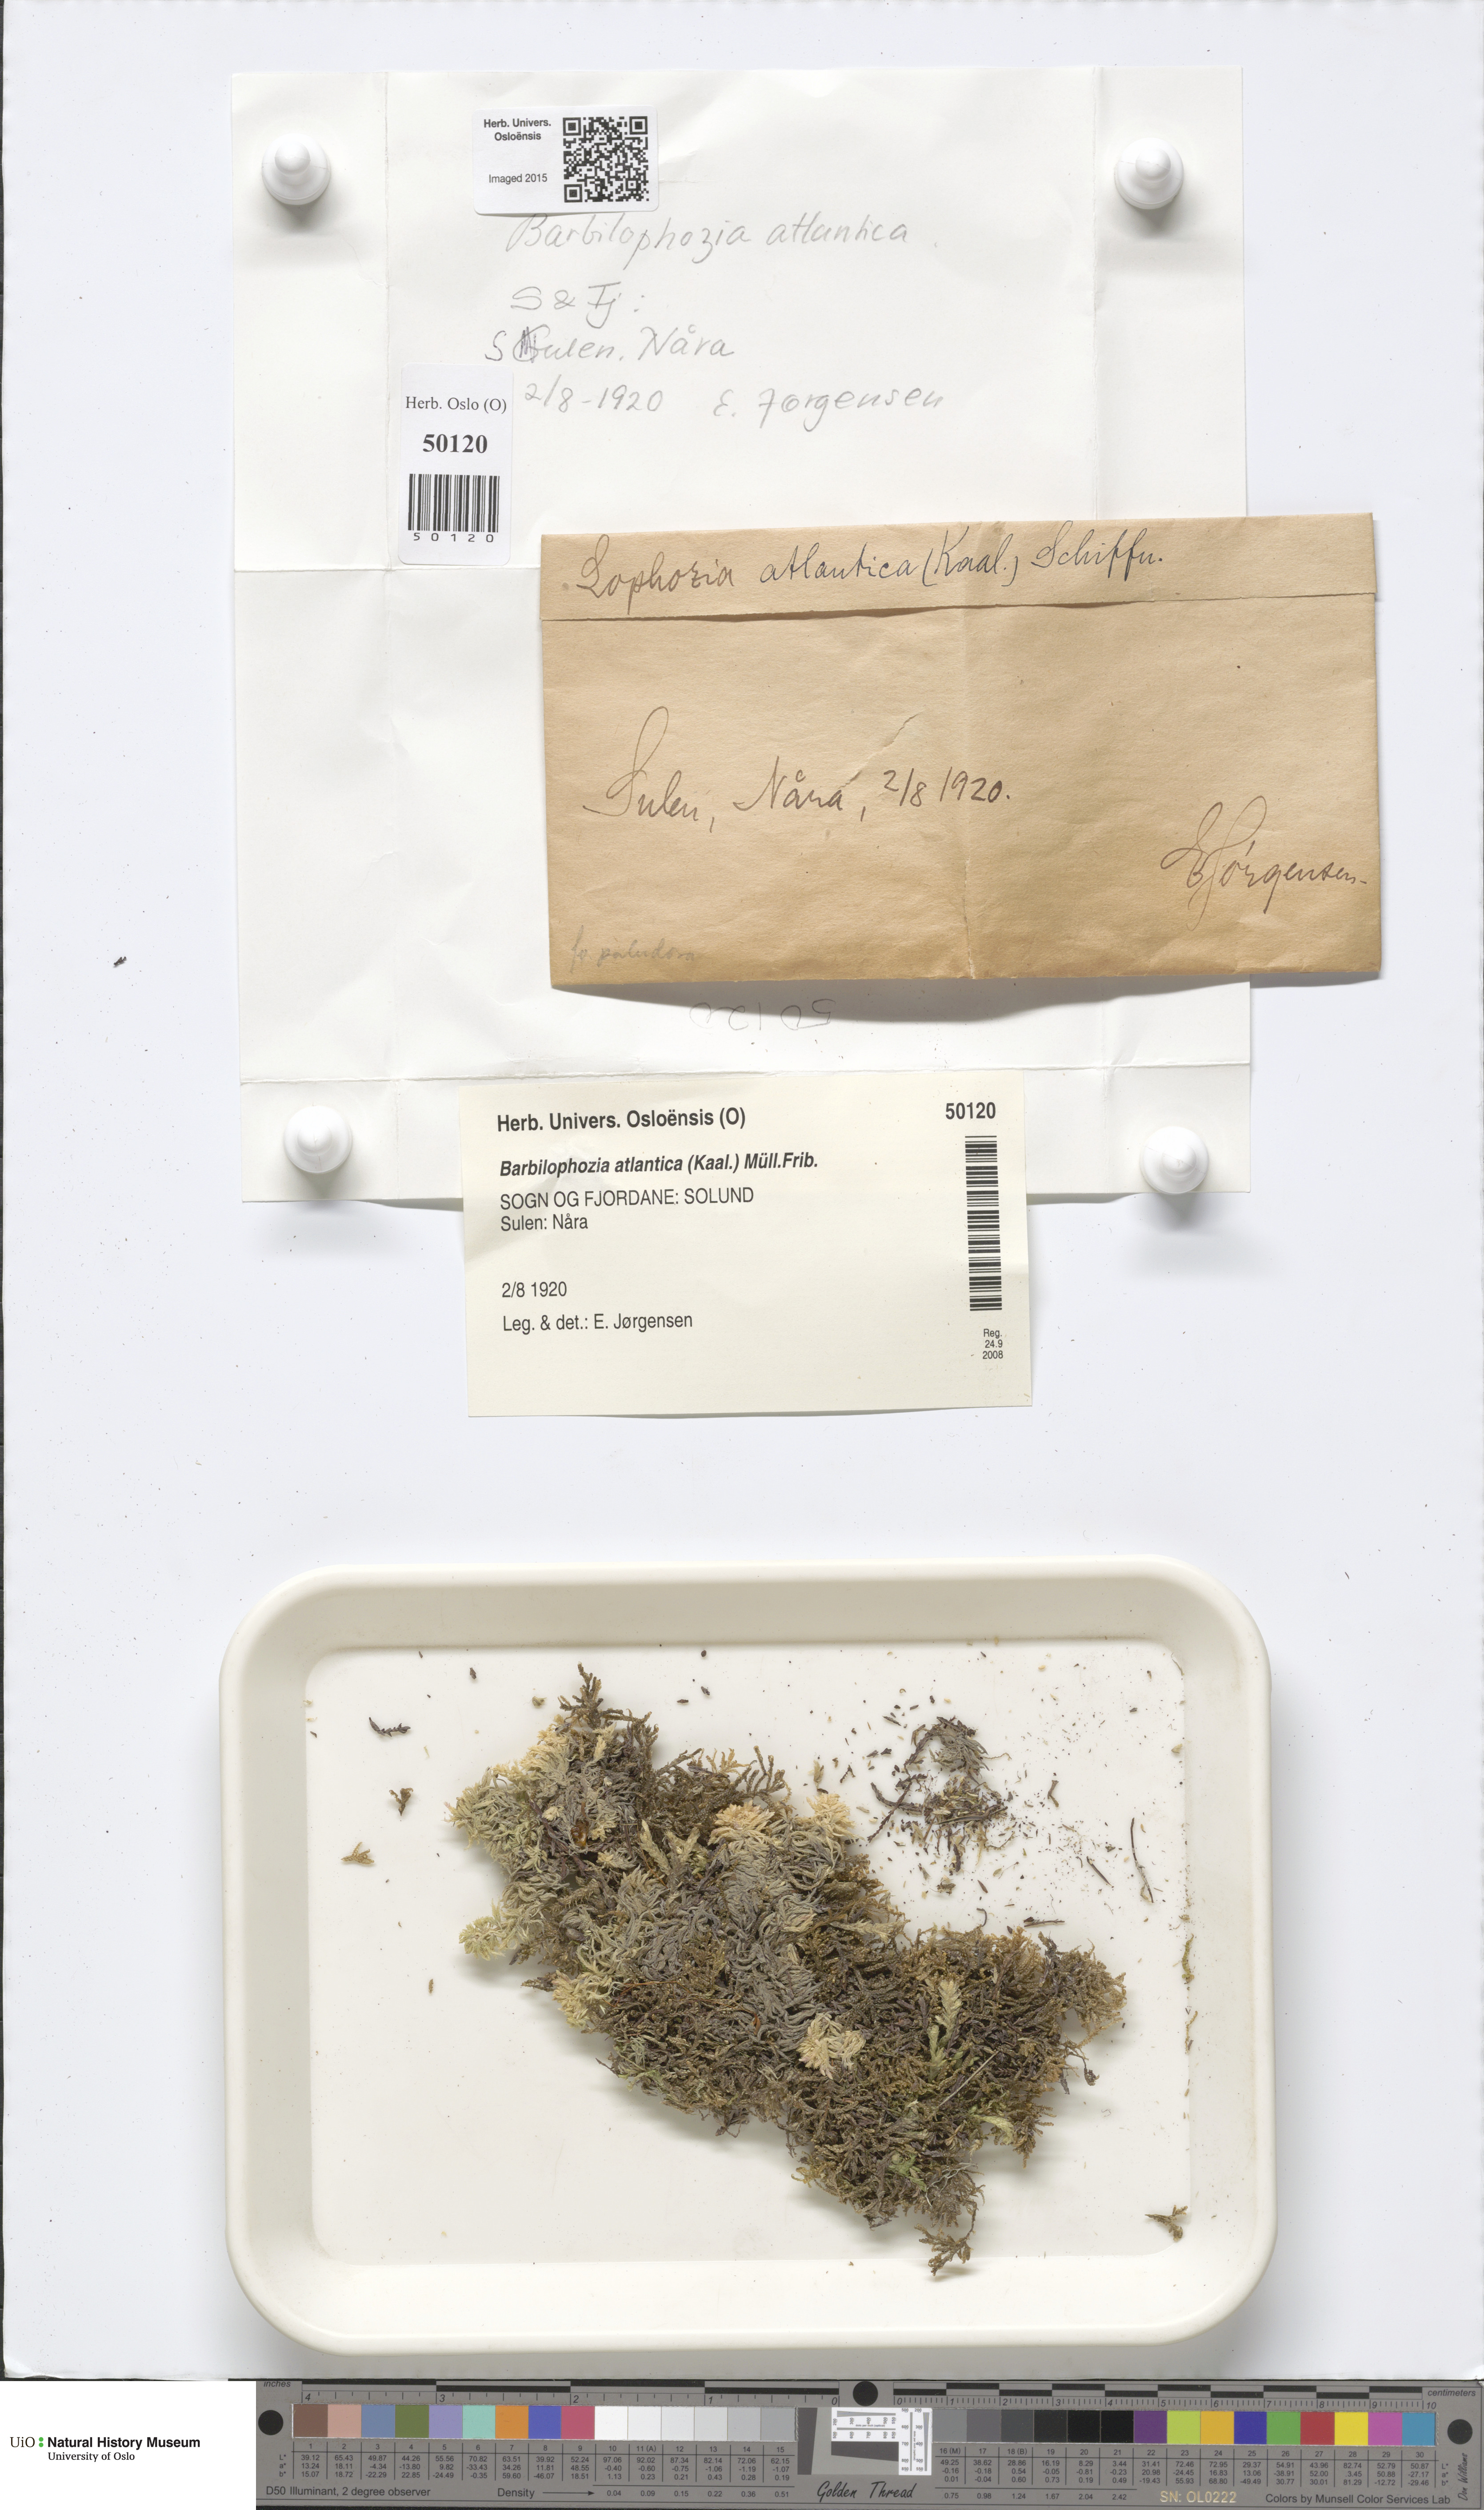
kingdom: Plantae
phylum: Marchantiophyta
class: Jungermanniopsida
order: Jungermanniales
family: Anastrophyllaceae
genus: Orthocaulis
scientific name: Orthocaulis atlanticus
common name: Atlantic pawwort
